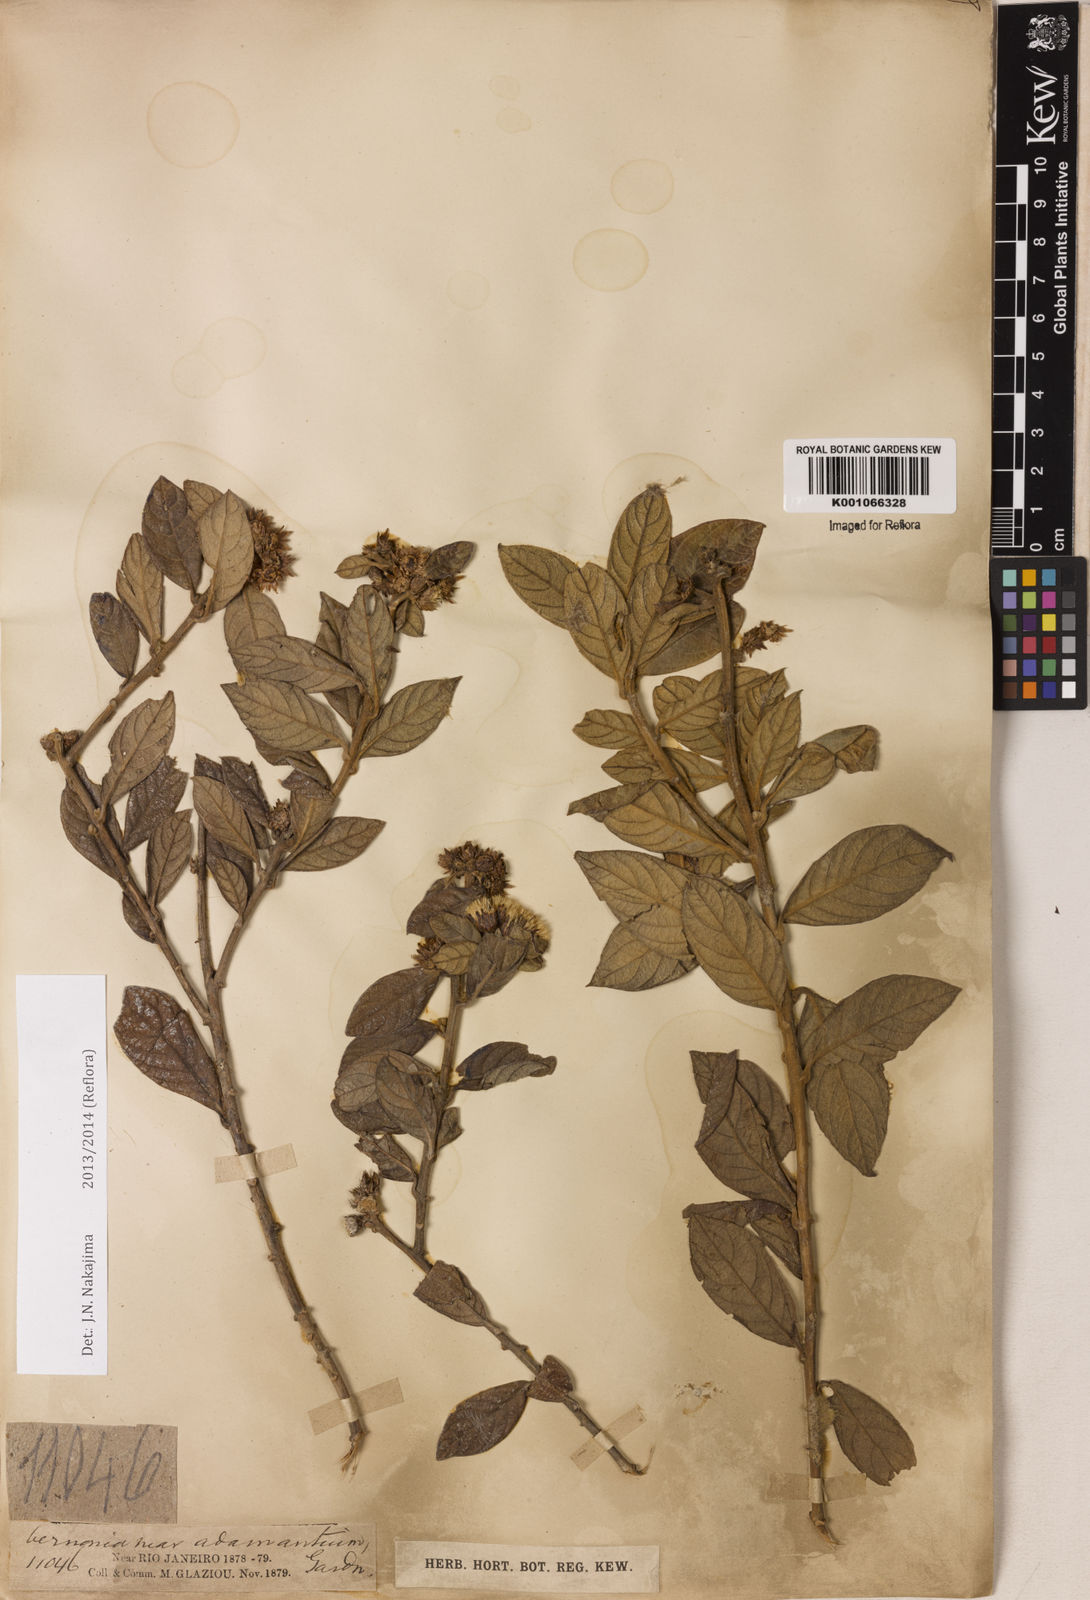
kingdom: Plantae
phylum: Tracheophyta
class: Magnoliopsida
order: Asterales
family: Asteraceae
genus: Tarlmounia
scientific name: Tarlmounia elliptica
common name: Kheua sa lot
